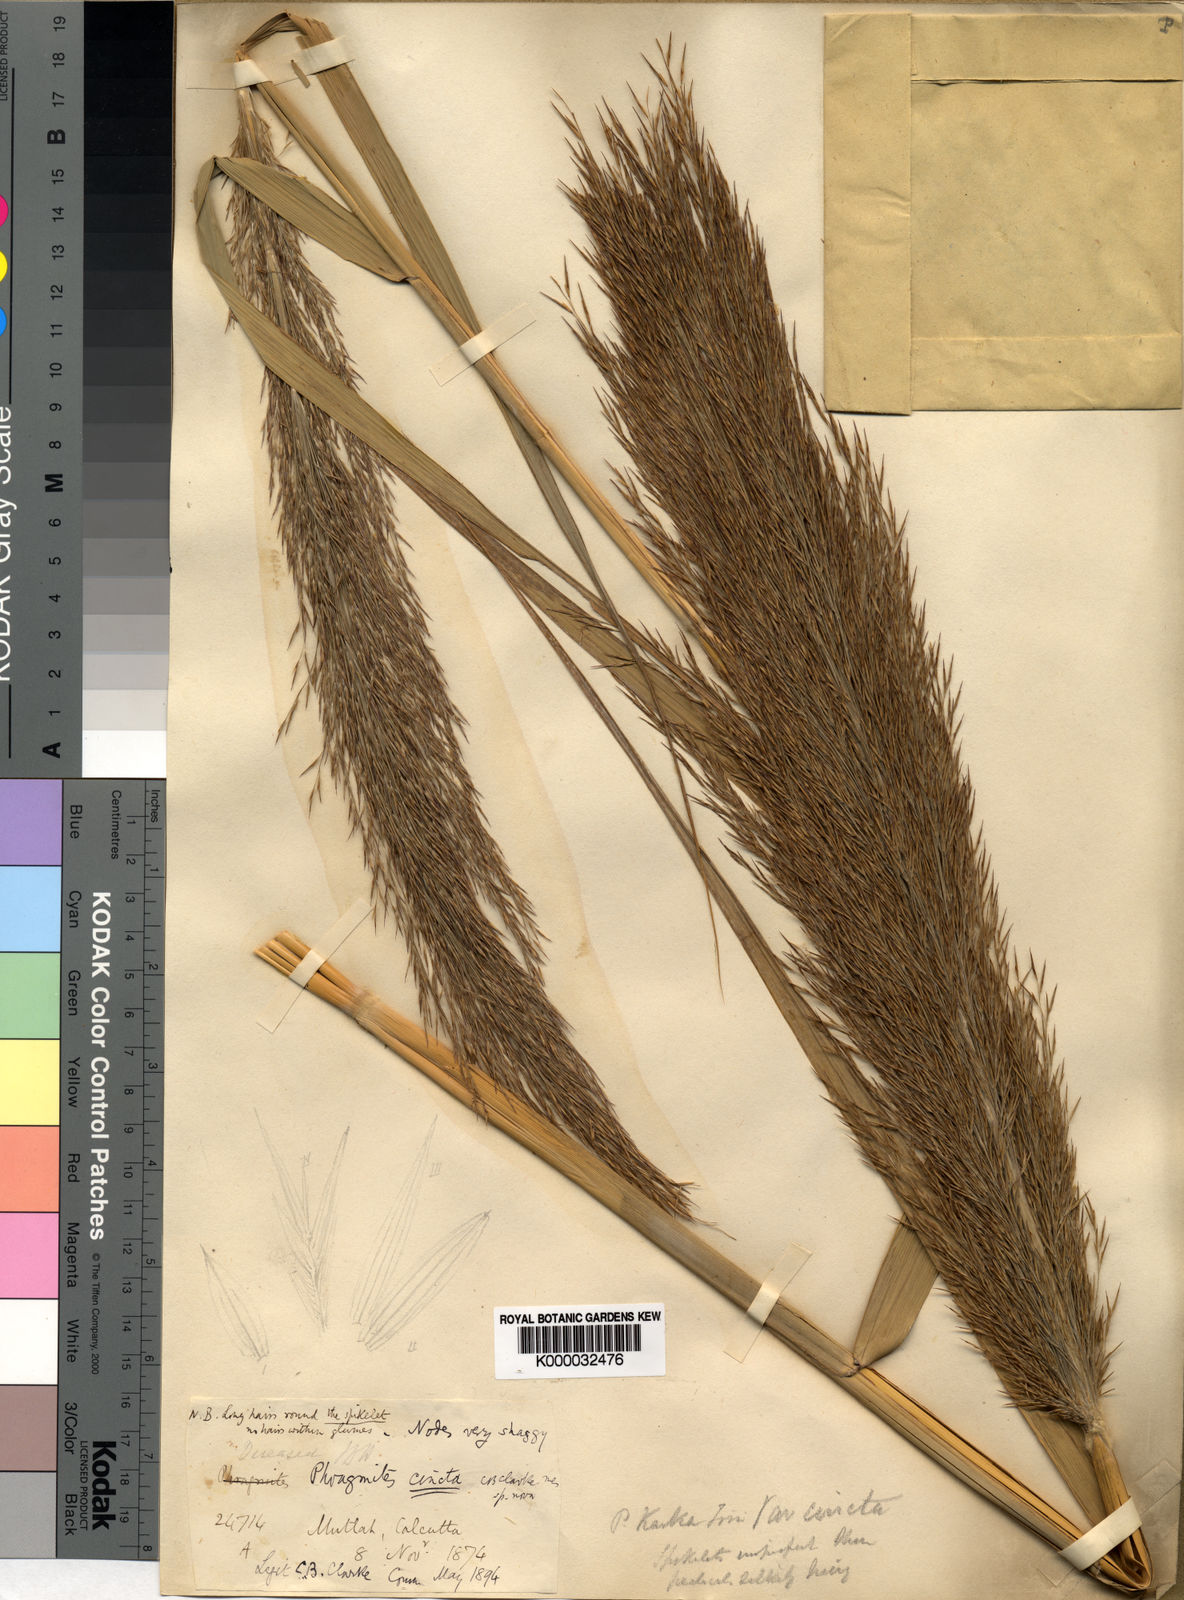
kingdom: Plantae
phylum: Tracheophyta
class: Liliopsida
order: Poales
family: Poaceae
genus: Phragmites
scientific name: Phragmites karka
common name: Tropical reed
